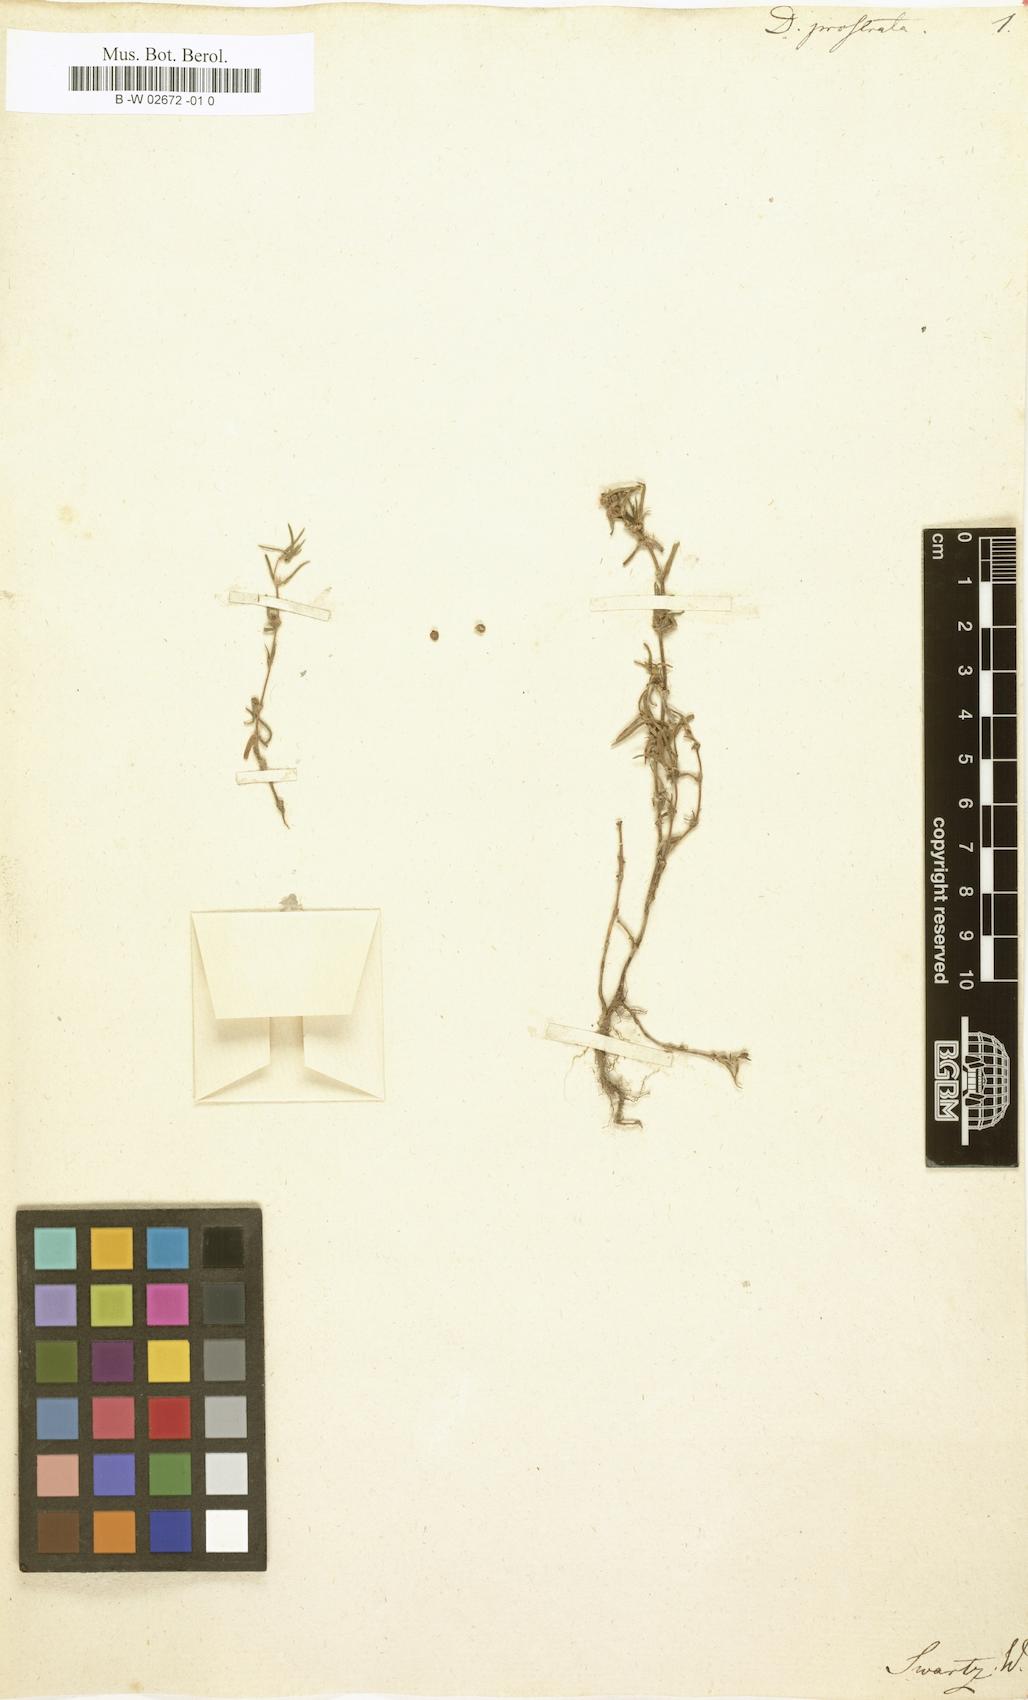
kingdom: Plantae
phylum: Tracheophyta
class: Magnoliopsida
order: Gentianales
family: Rubiaceae
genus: Hexasepalum
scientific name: Hexasepalum teres
